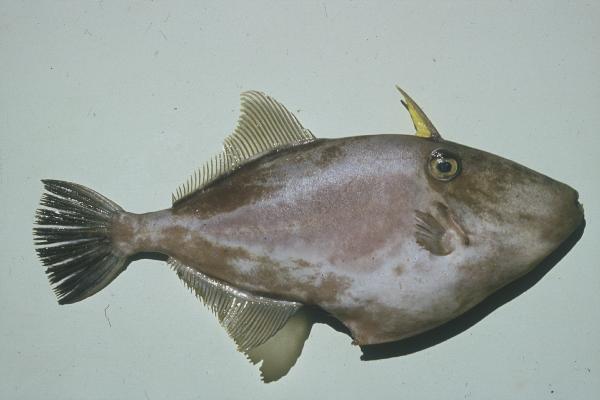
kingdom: Animalia
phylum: Chordata
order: Tetraodontiformes
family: Monacanthidae
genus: Thamnaconus
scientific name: Thamnaconus modestoides
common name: Modest filefish
